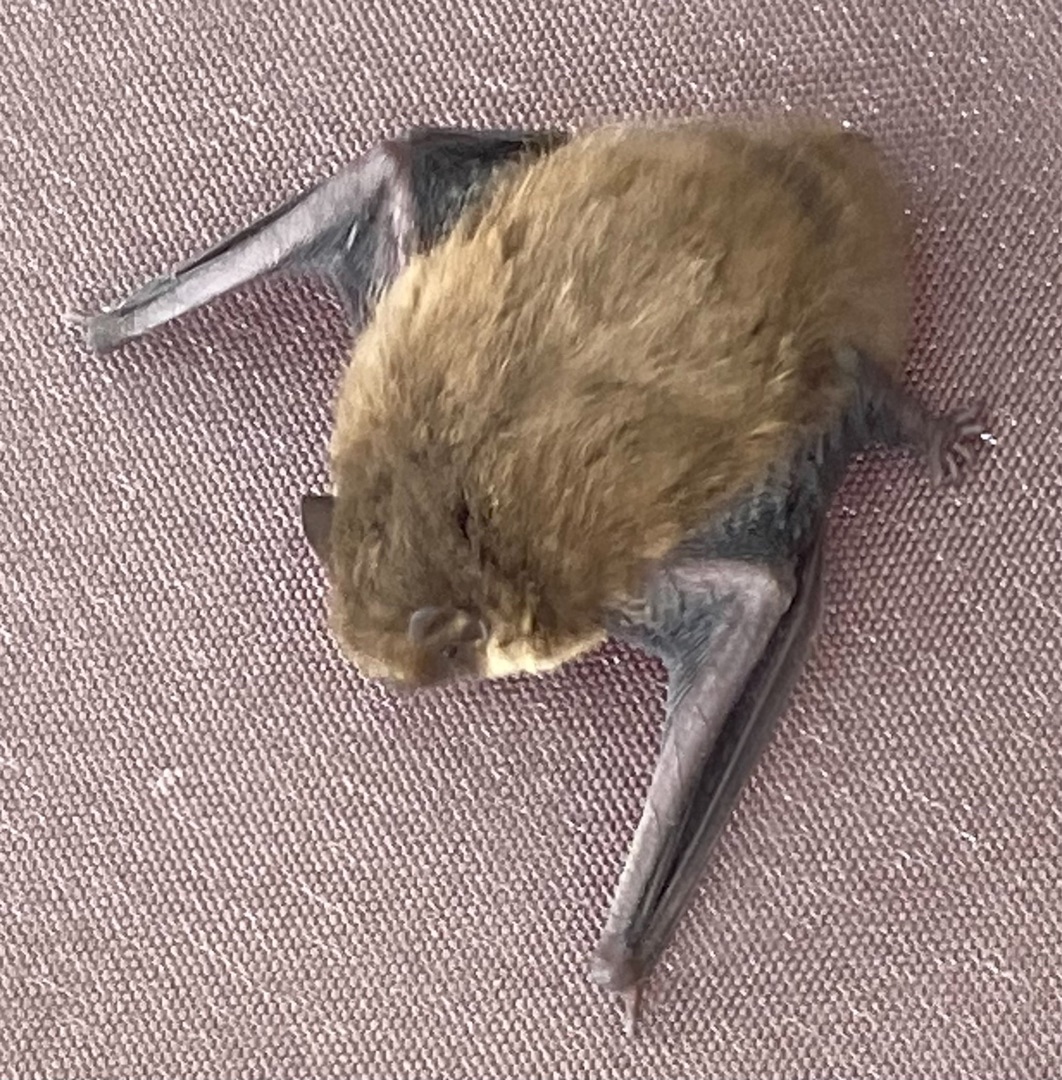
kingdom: Animalia
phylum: Chordata
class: Mammalia
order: Chiroptera
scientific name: Chiroptera
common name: Flagermus
